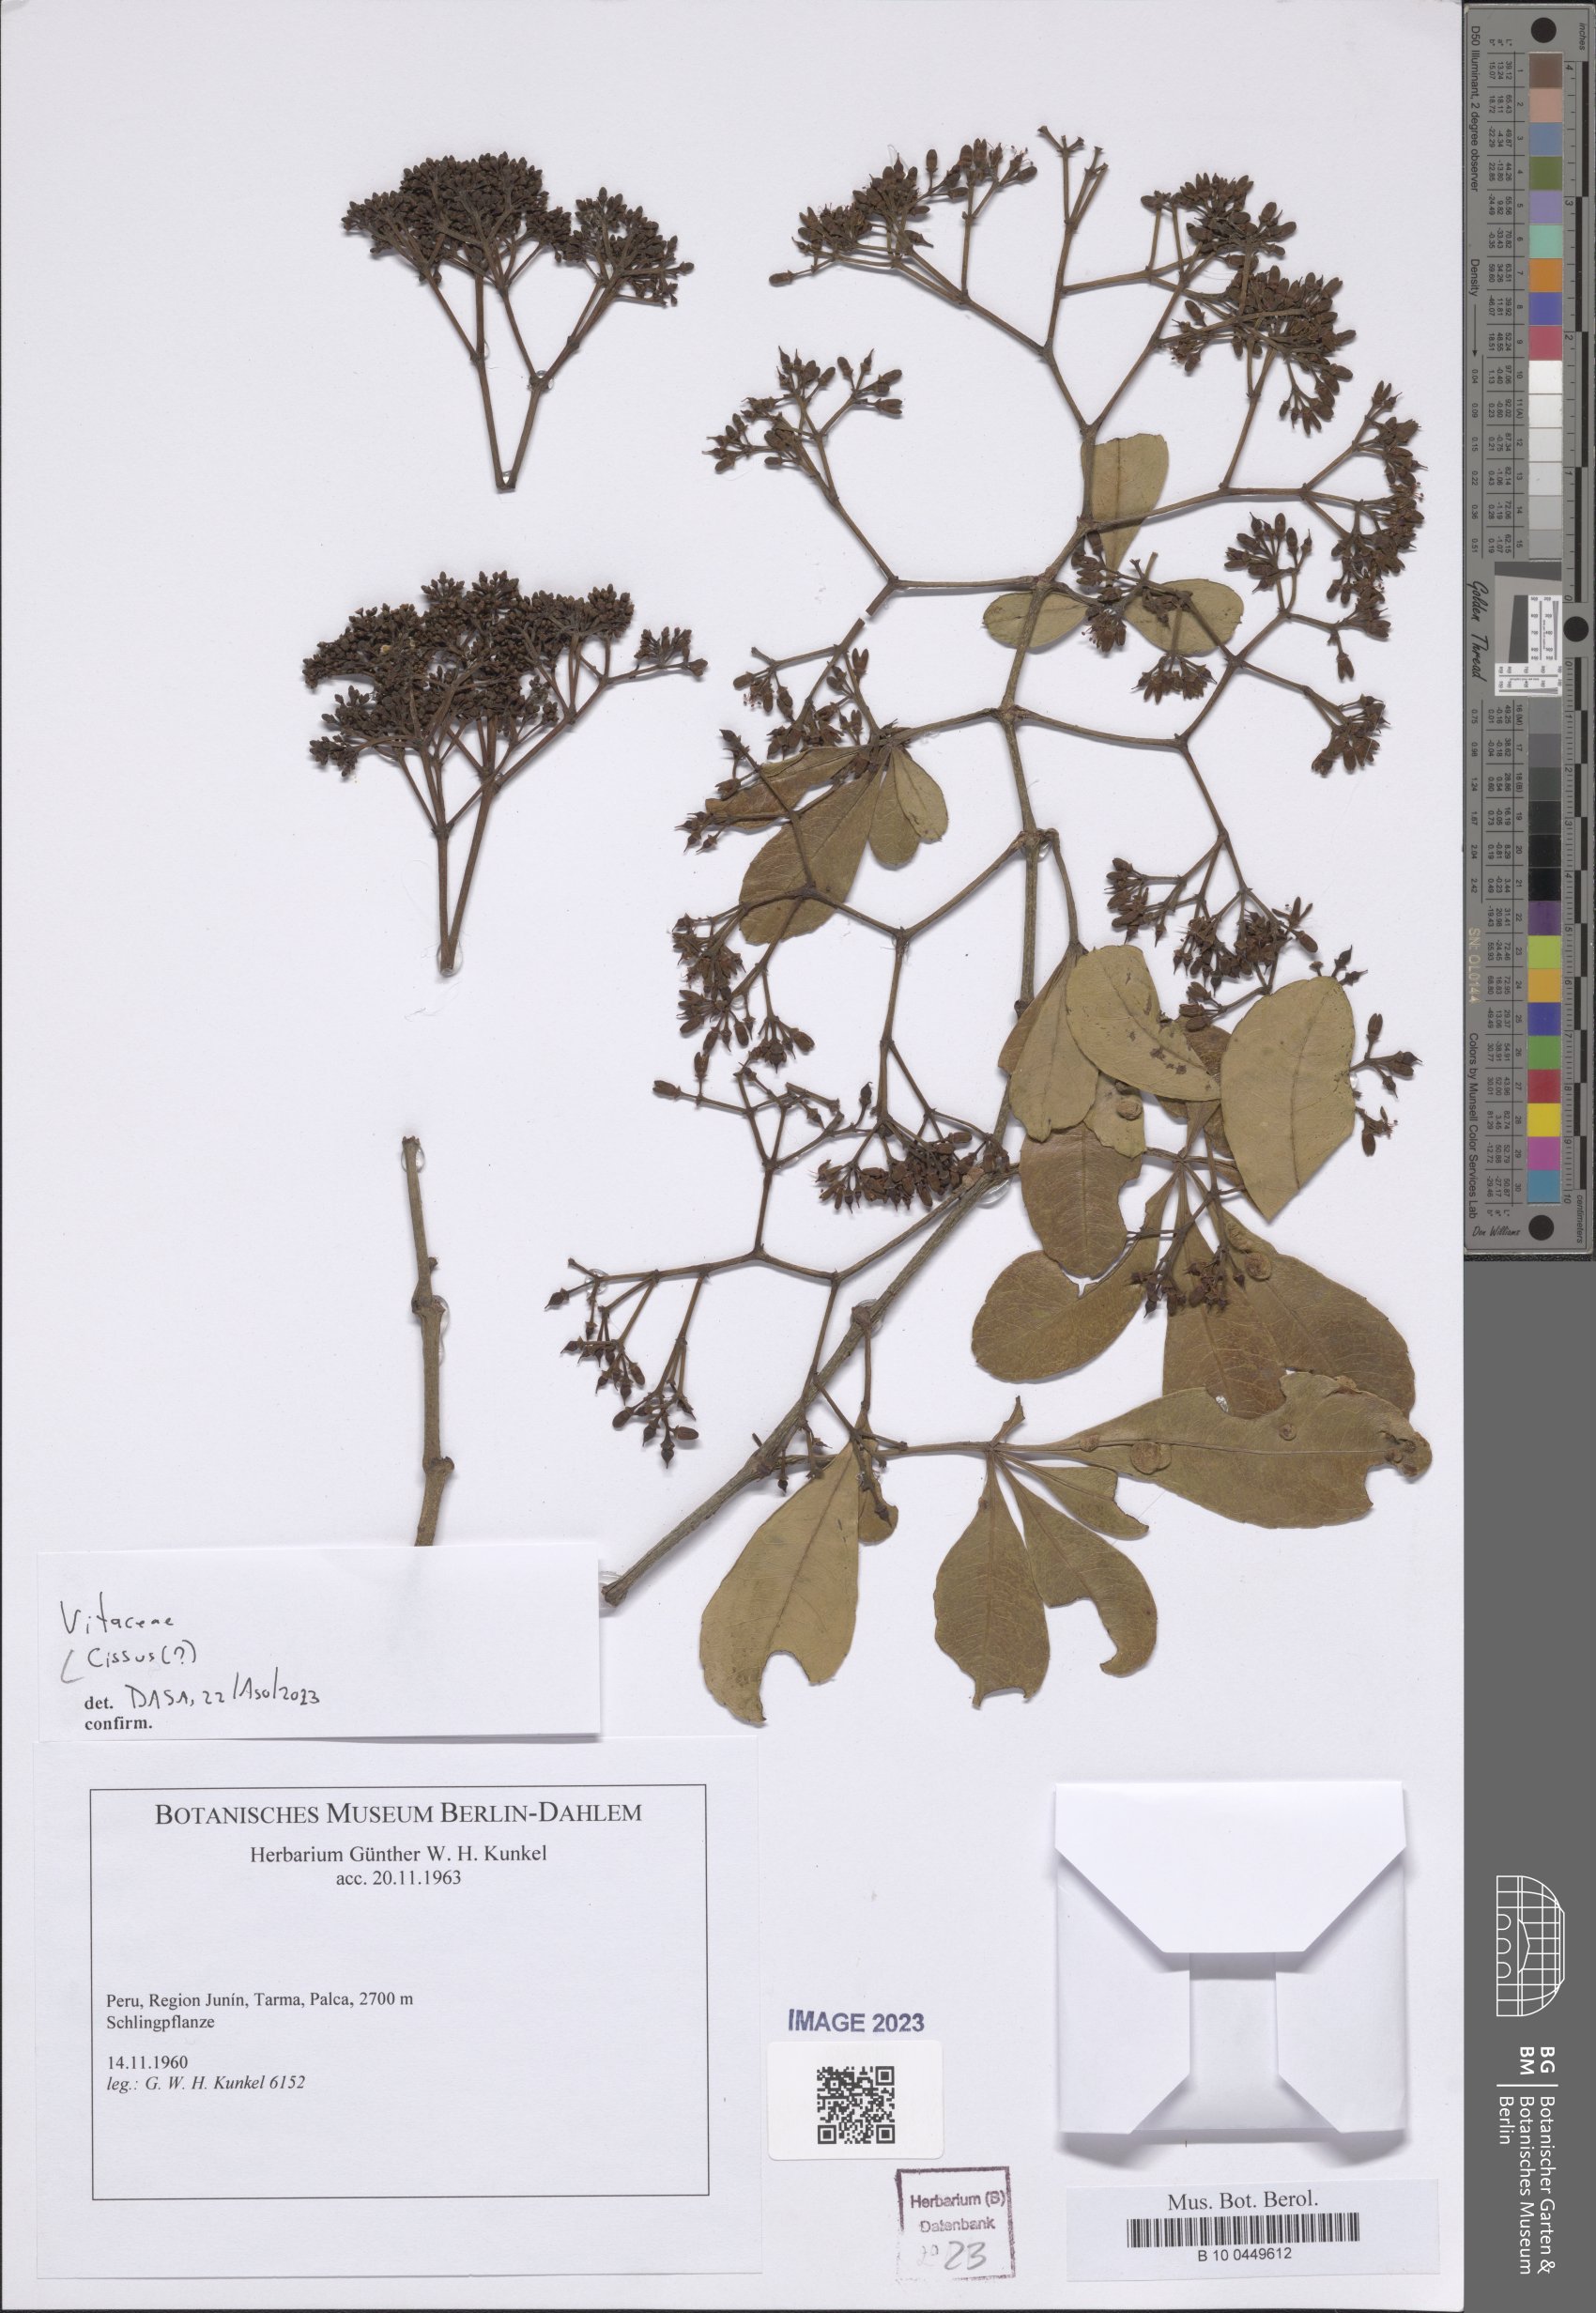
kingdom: Plantae
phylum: Tracheophyta
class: Magnoliopsida
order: Vitales
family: Vitaceae
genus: Cissus
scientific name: Cissus
